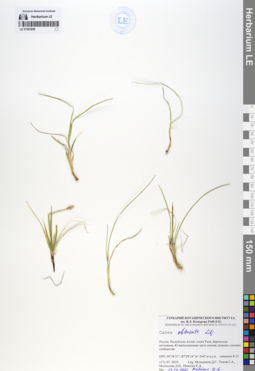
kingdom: Plantae
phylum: Tracheophyta
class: Liliopsida
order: Poales
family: Cyperaceae
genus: Carex
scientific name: Carex obtusata
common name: Blunt sedge
